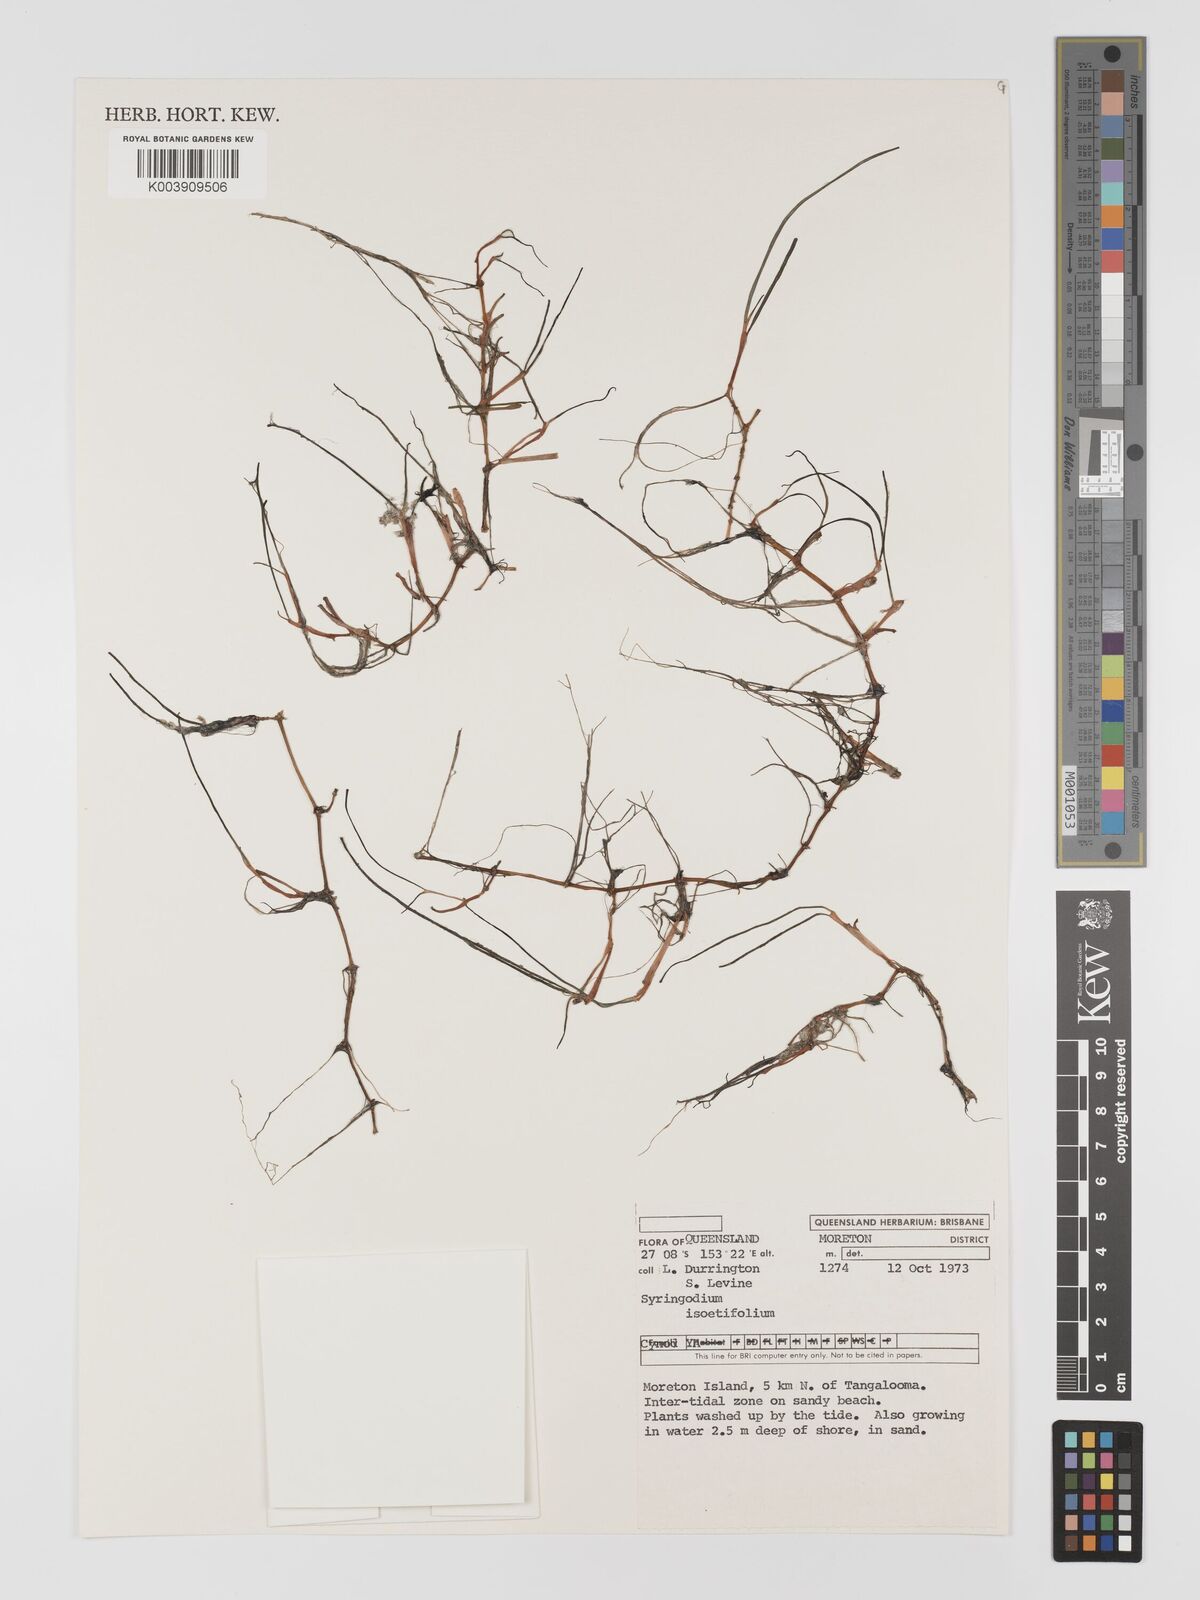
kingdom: Plantae
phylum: Tracheophyta
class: Liliopsida
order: Alismatales
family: Cymodoceaceae
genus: Syringodium
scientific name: Syringodium isoetifolium
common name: Species code: si
